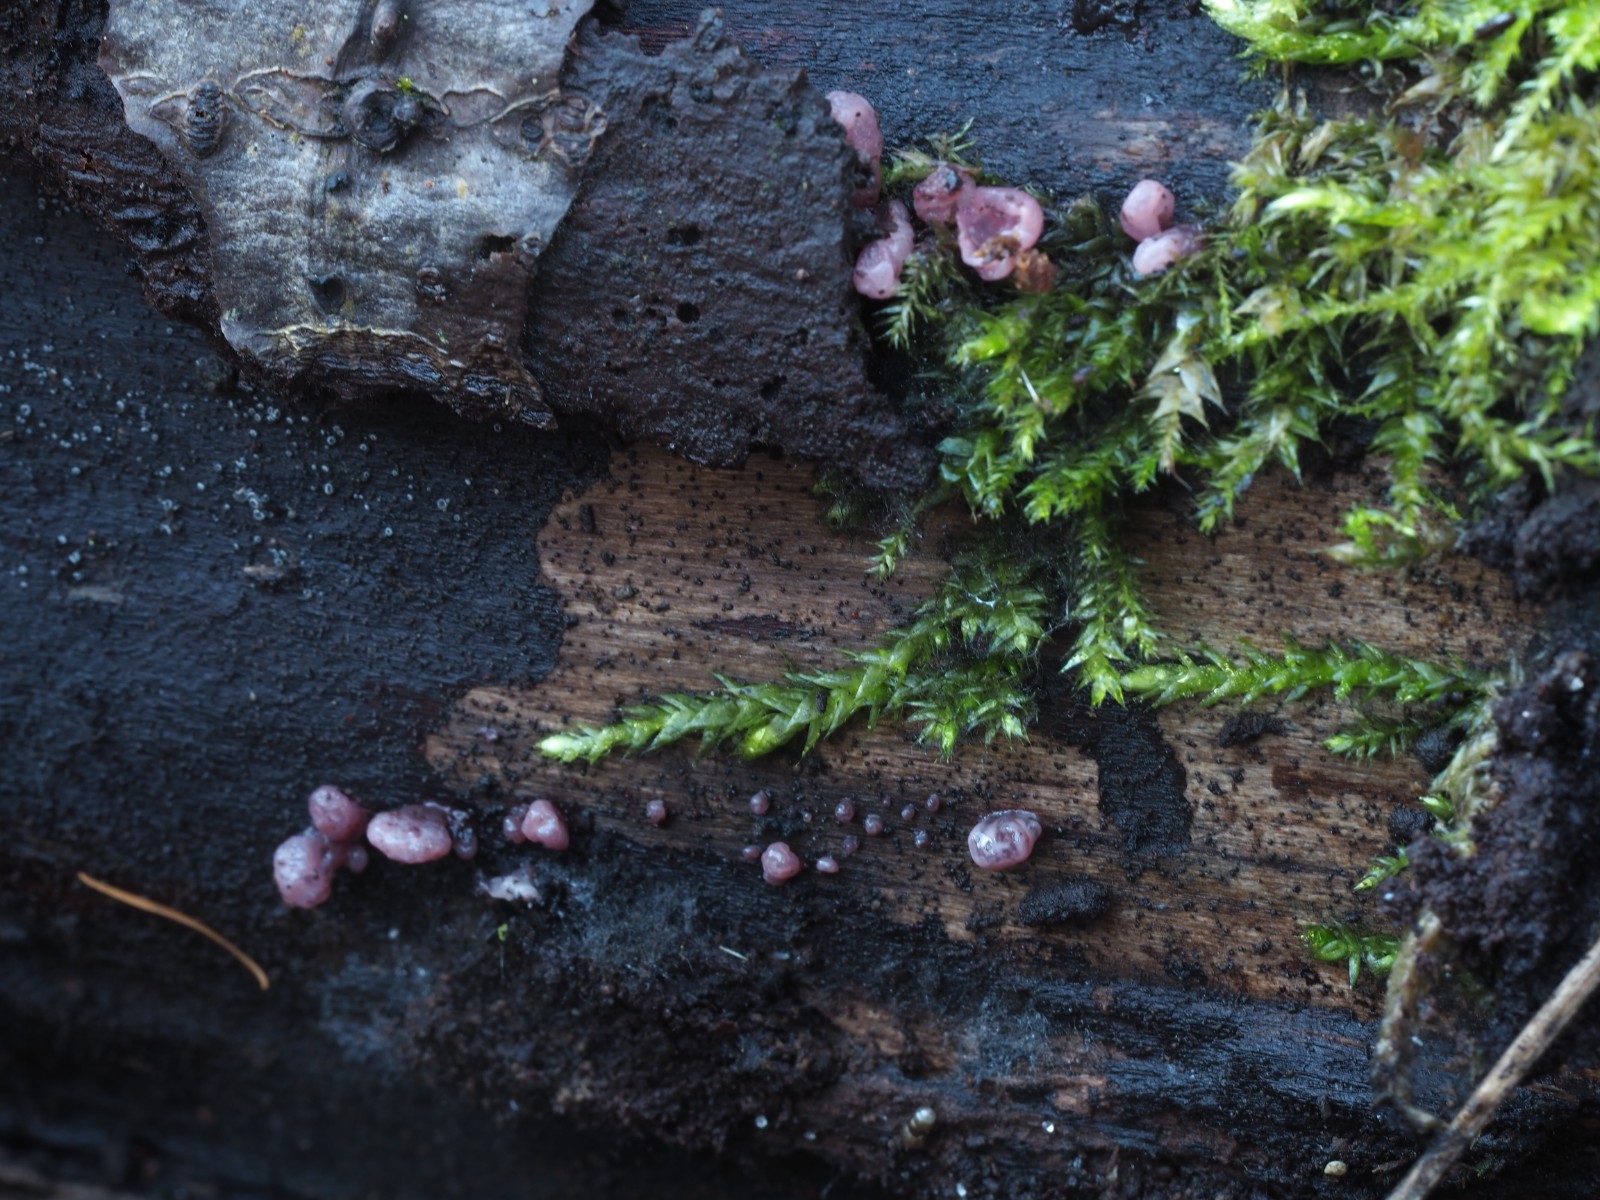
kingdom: Fungi
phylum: Ascomycota
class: Leotiomycetes
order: Helotiales
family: Gelatinodiscaceae
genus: Ascocoryne
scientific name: Ascocoryne sarcoides
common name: rødlilla sejskive
